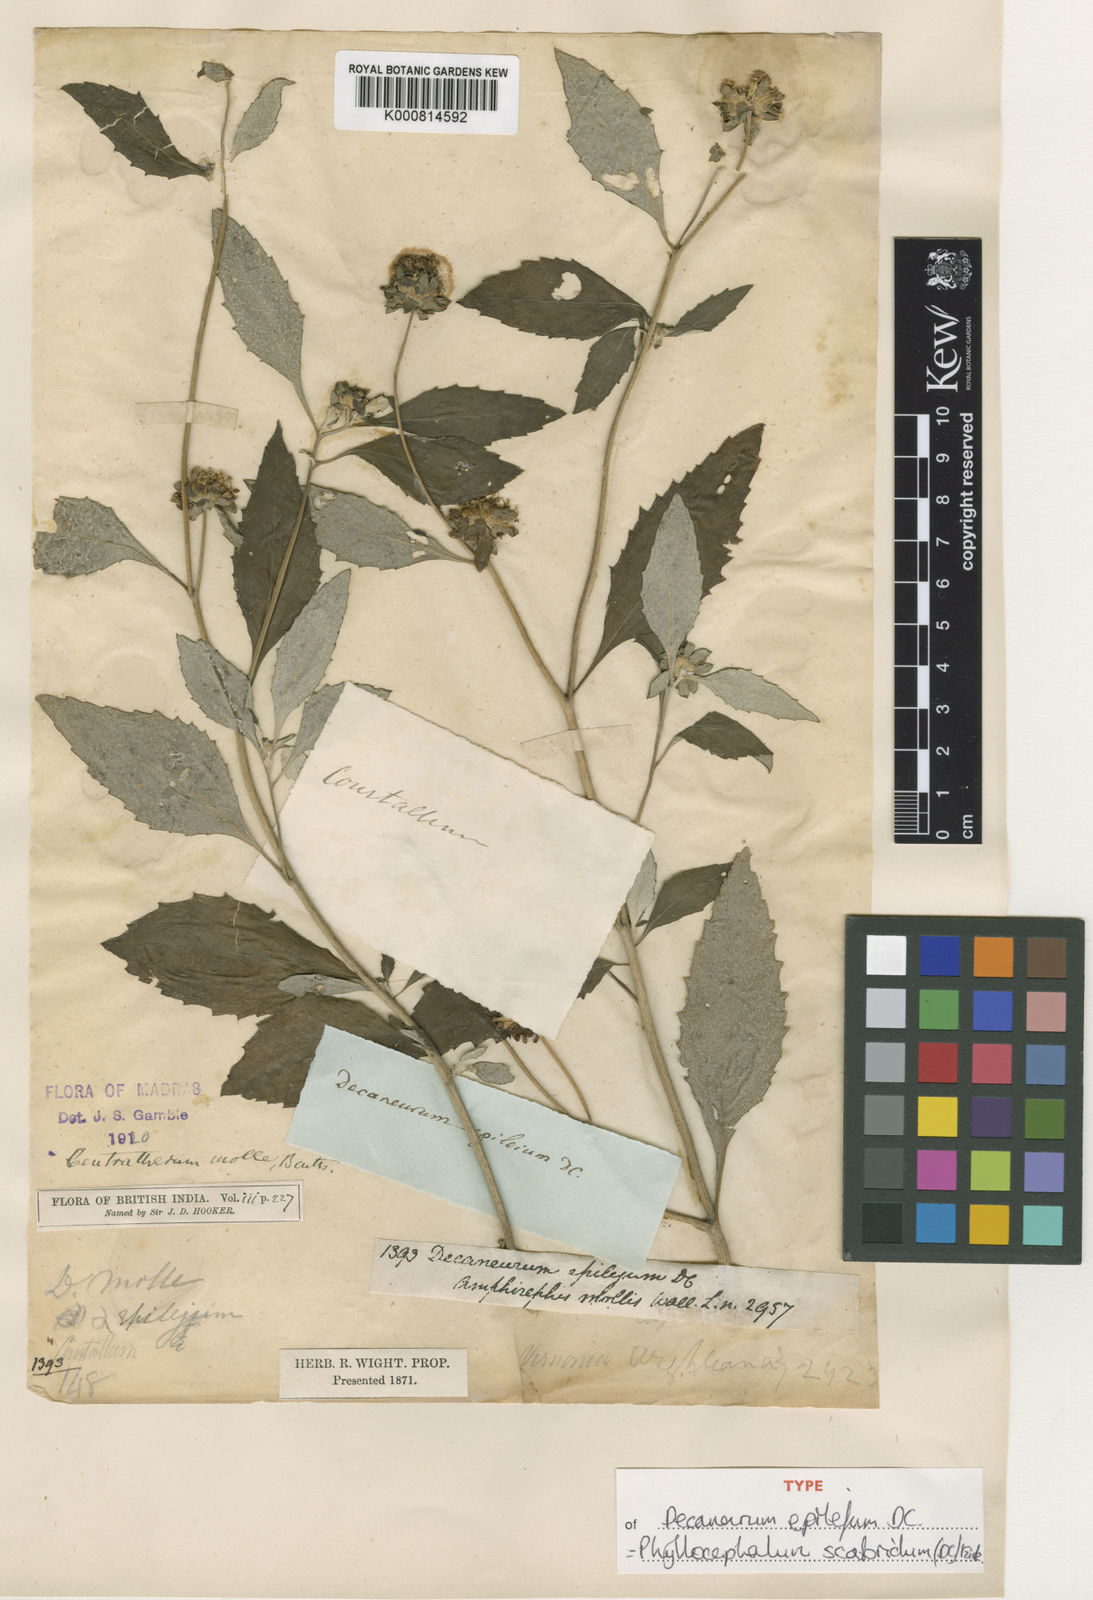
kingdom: Plantae
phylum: Tracheophyta
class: Magnoliopsida
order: Asterales
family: Asteraceae
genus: Phyllocephalum
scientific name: Phyllocephalum scabridum
